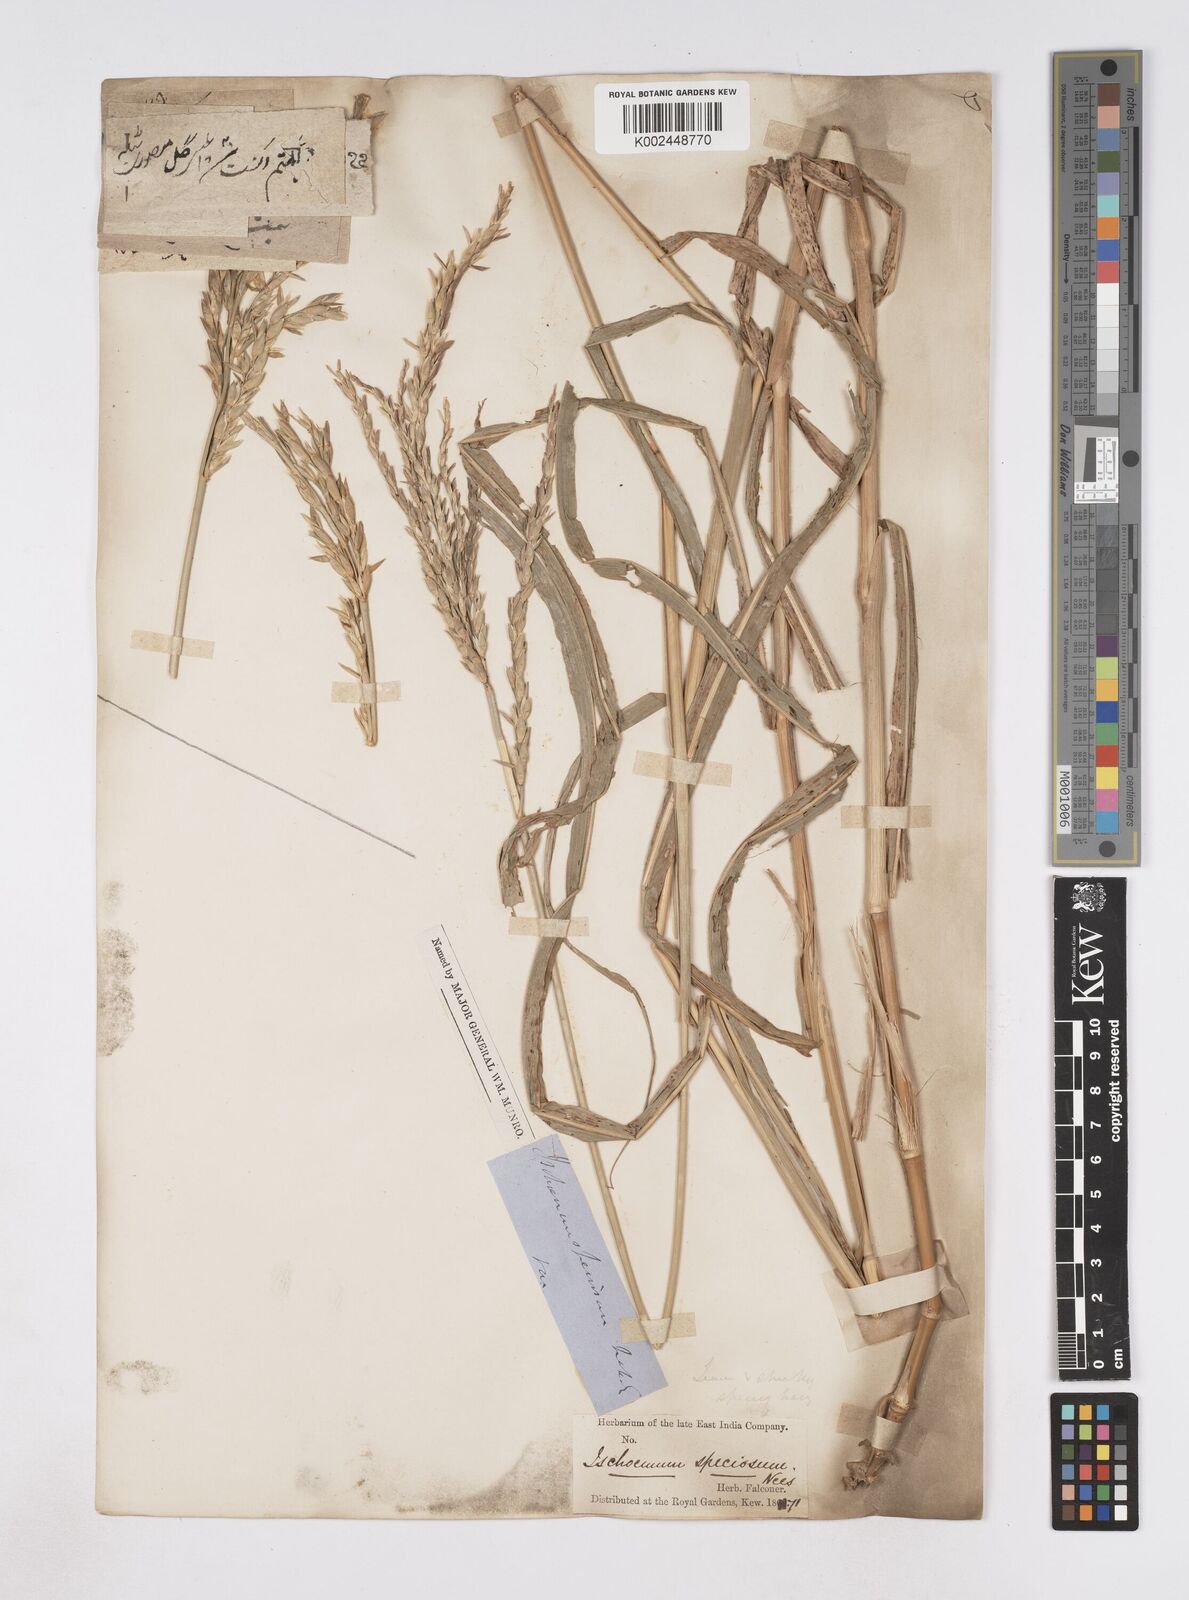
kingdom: Plantae
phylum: Tracheophyta
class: Liliopsida
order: Poales
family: Poaceae
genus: Phacelurus
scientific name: Phacelurus speciosus
